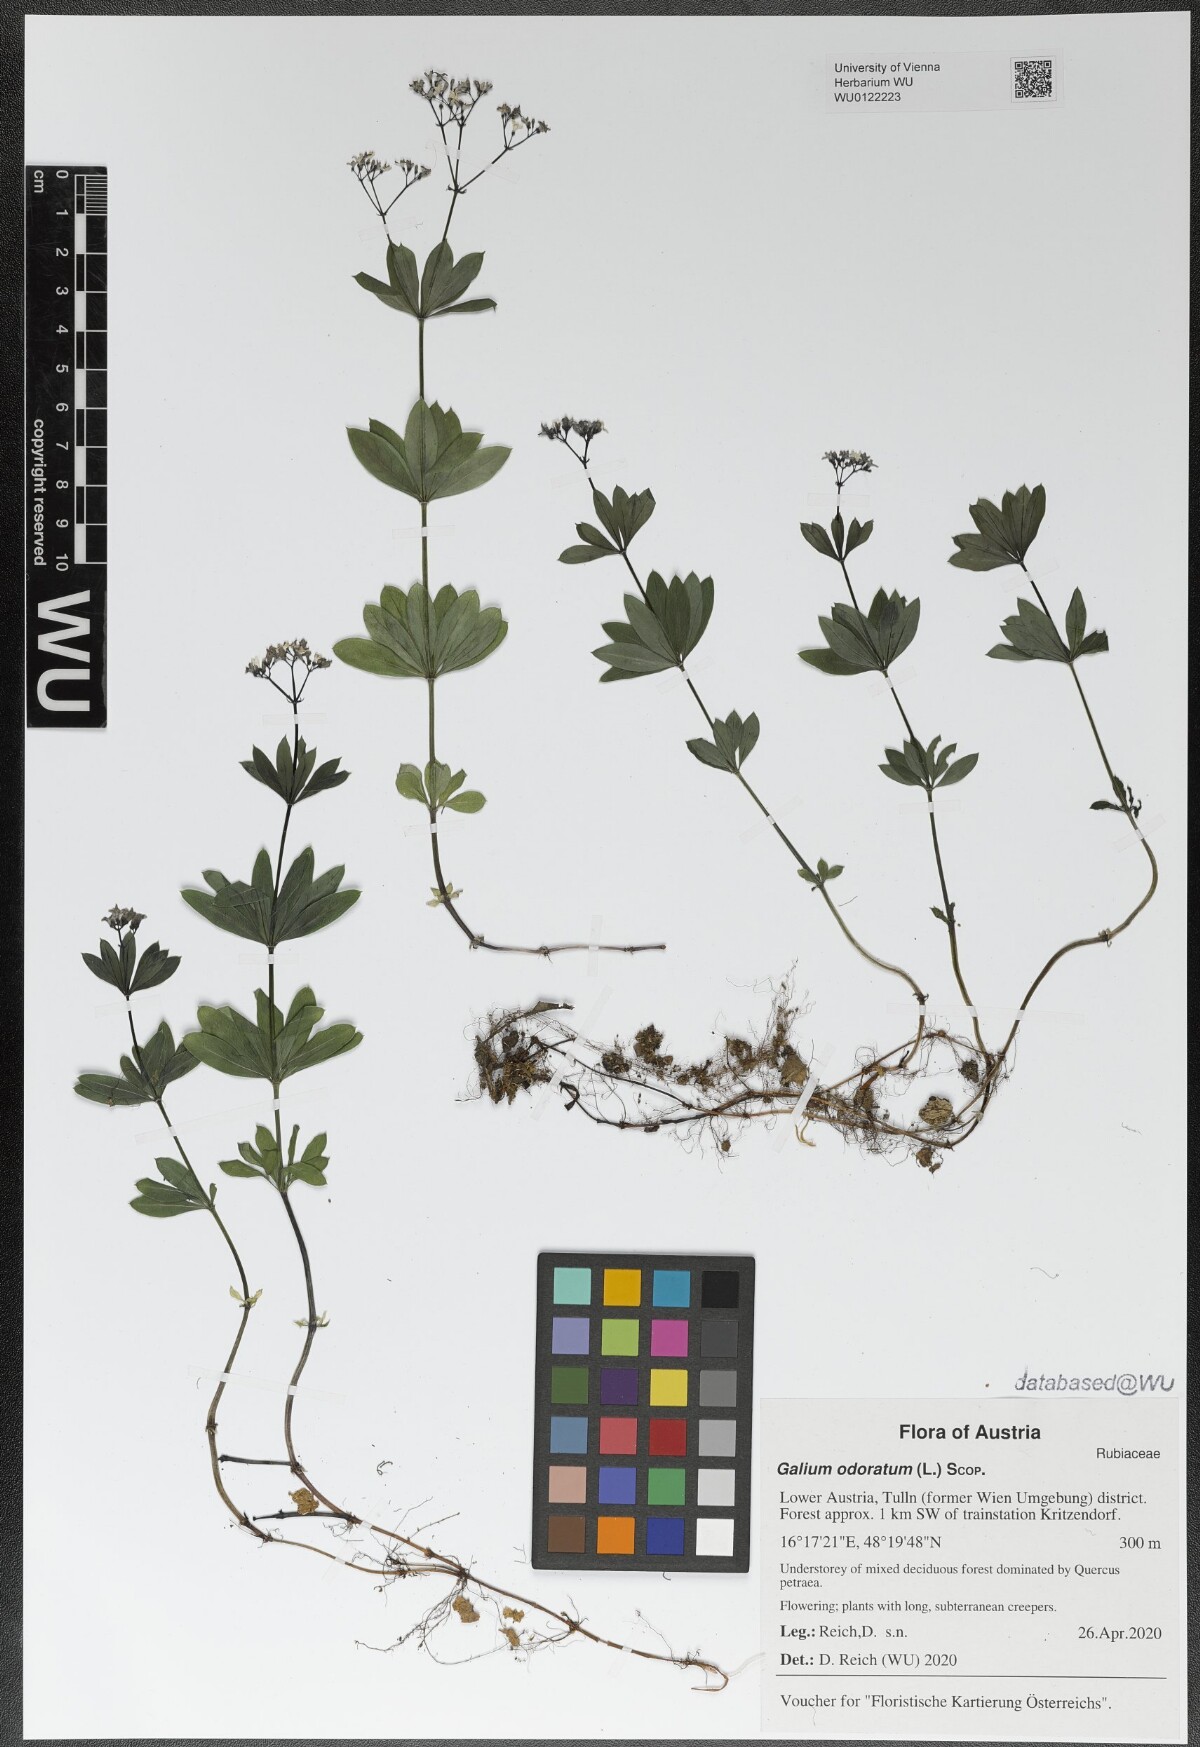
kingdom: Plantae
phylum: Tracheophyta
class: Magnoliopsida
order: Gentianales
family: Rubiaceae
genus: Galium
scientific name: Galium odoratum
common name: Sweet woodruff
